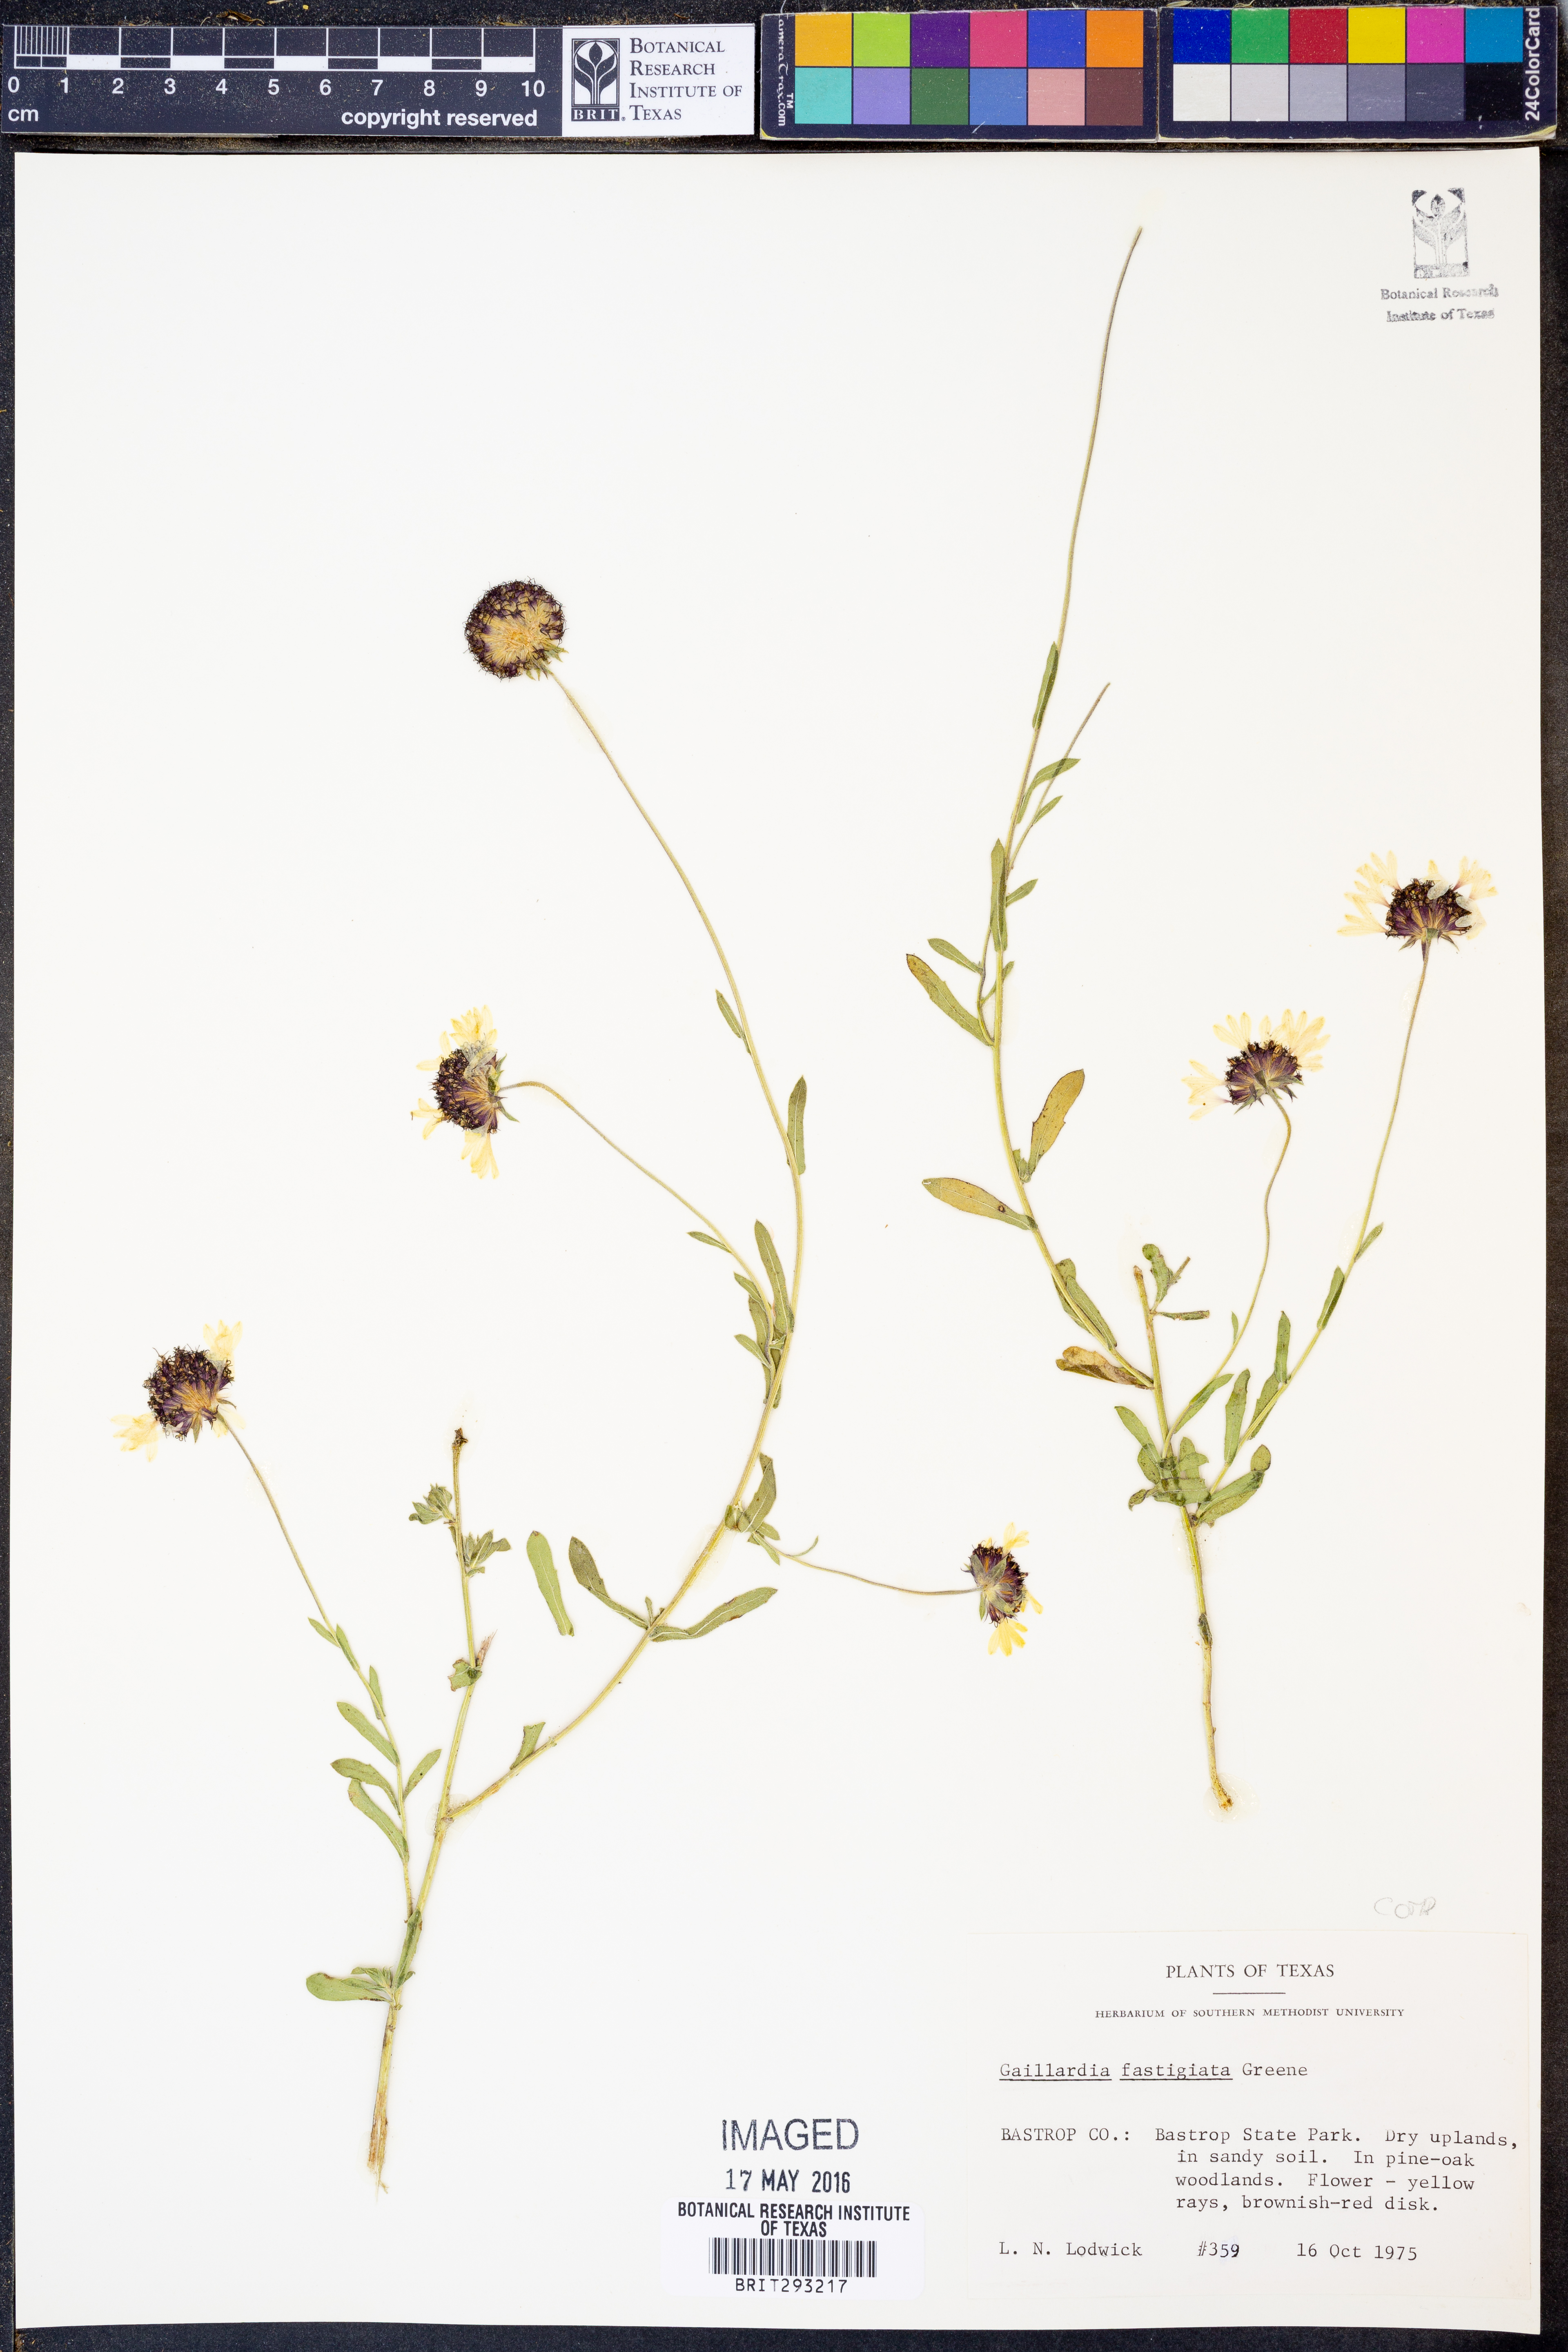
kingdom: Plantae
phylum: Tracheophyta
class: Magnoliopsida
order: Asterales
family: Asteraceae
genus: Gaillardia
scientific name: Gaillardia aestivalis
